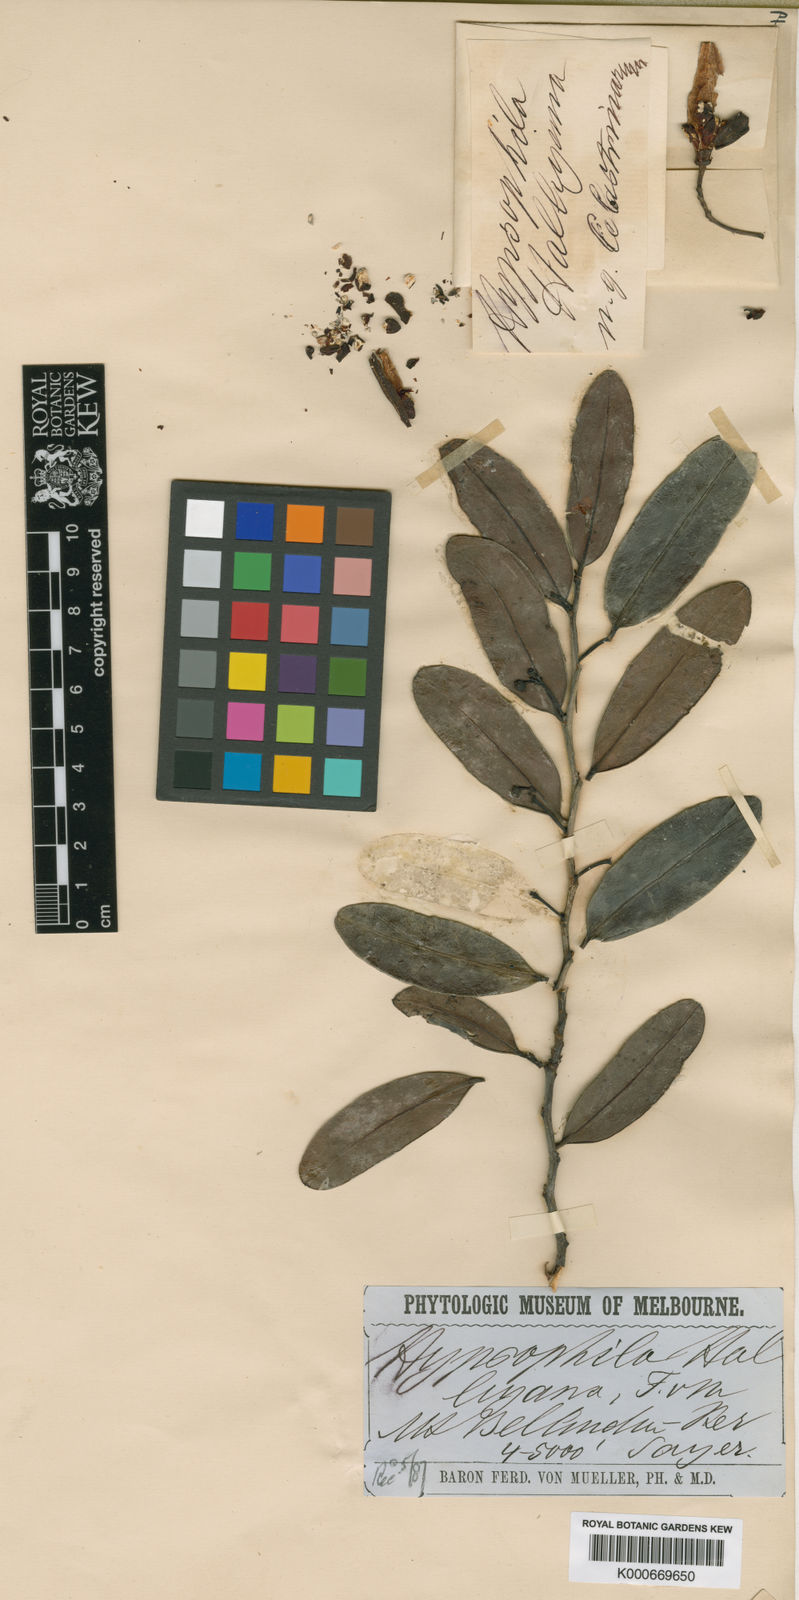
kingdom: Plantae
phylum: Tracheophyta
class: Magnoliopsida
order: Celastrales
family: Celastraceae
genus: Hypsophila
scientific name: Hypsophila halleyana
